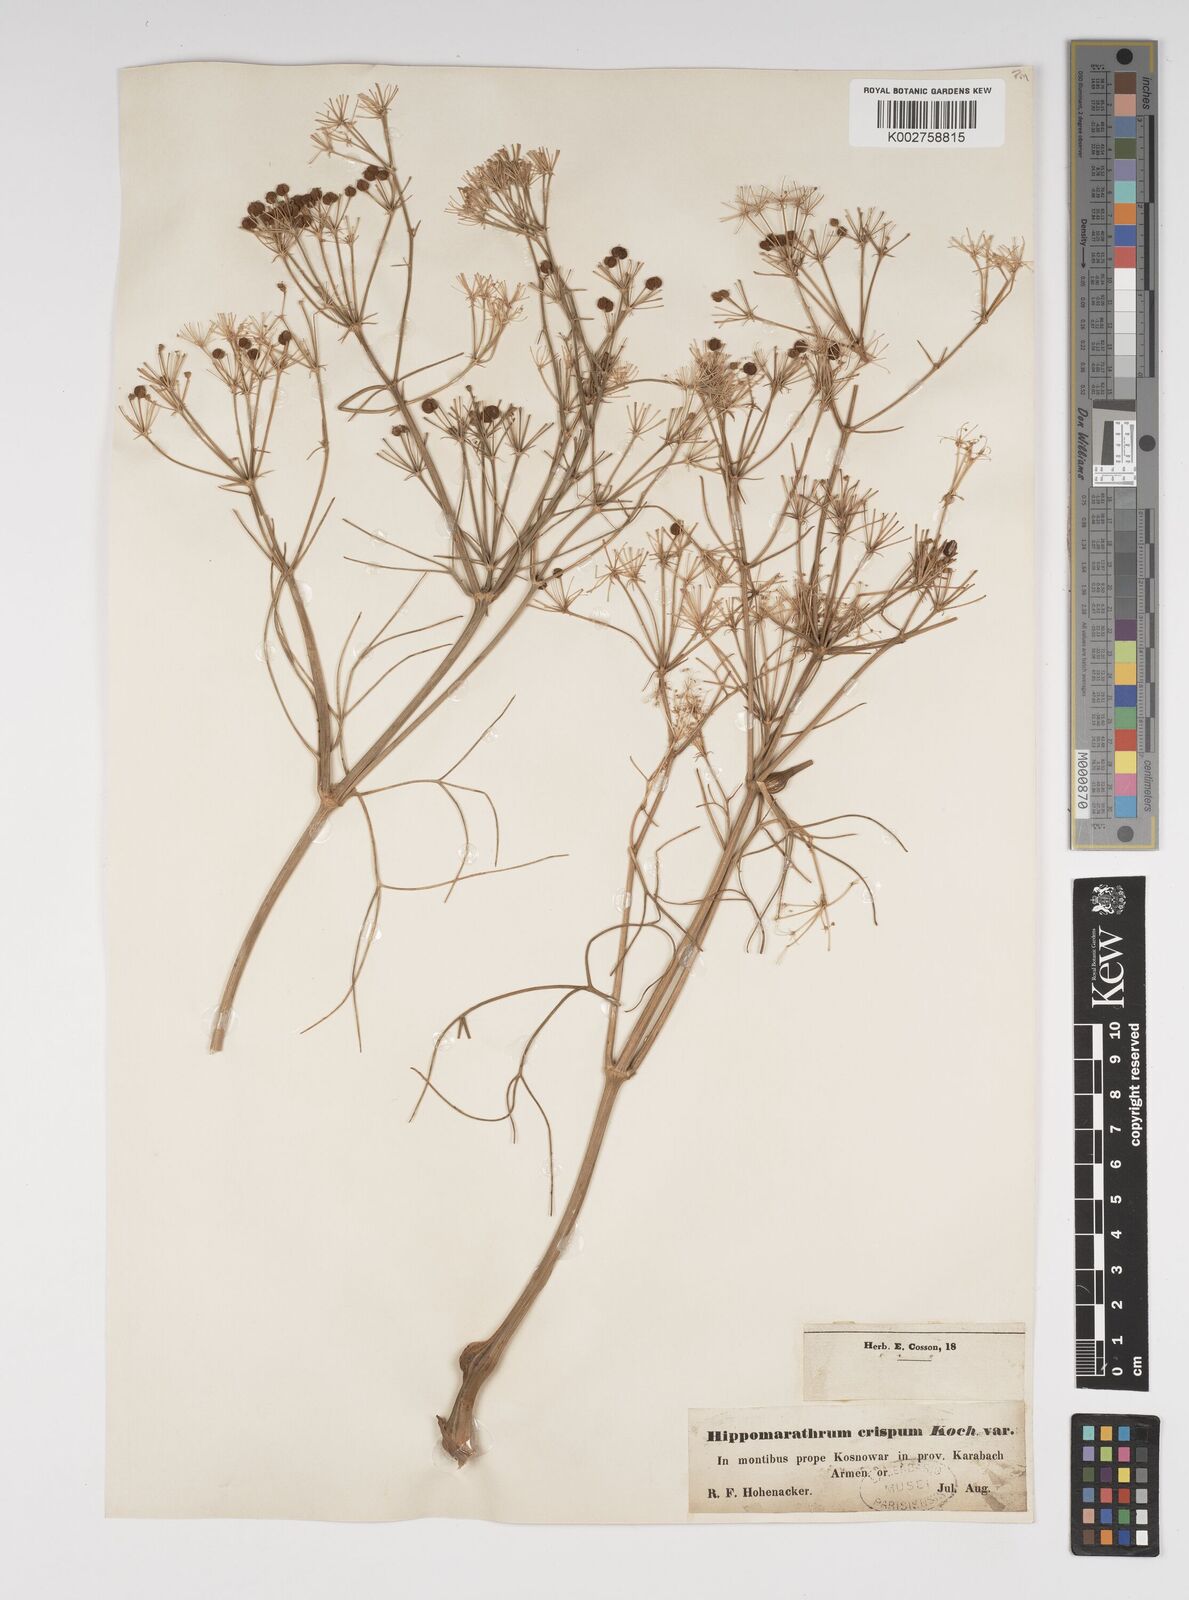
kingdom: Plantae
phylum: Tracheophyta
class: Magnoliopsida
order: Apiales
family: Apiaceae
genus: Bilacunaria
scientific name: Bilacunaria microcarpa
